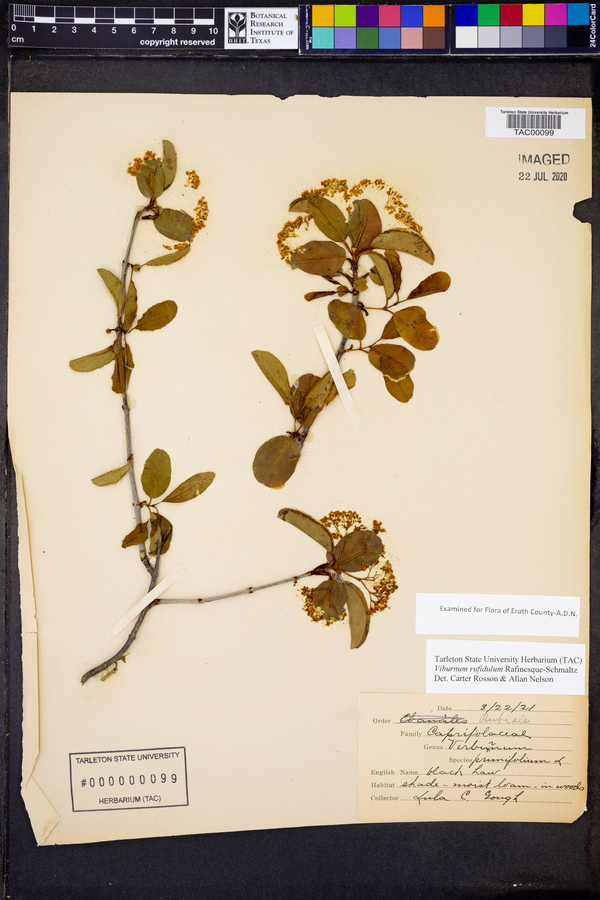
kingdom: Plantae
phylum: Tracheophyta
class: Magnoliopsida
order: Dipsacales
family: Viburnaceae
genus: Viburnum
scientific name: Viburnum rufidulum
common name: Blue haw
